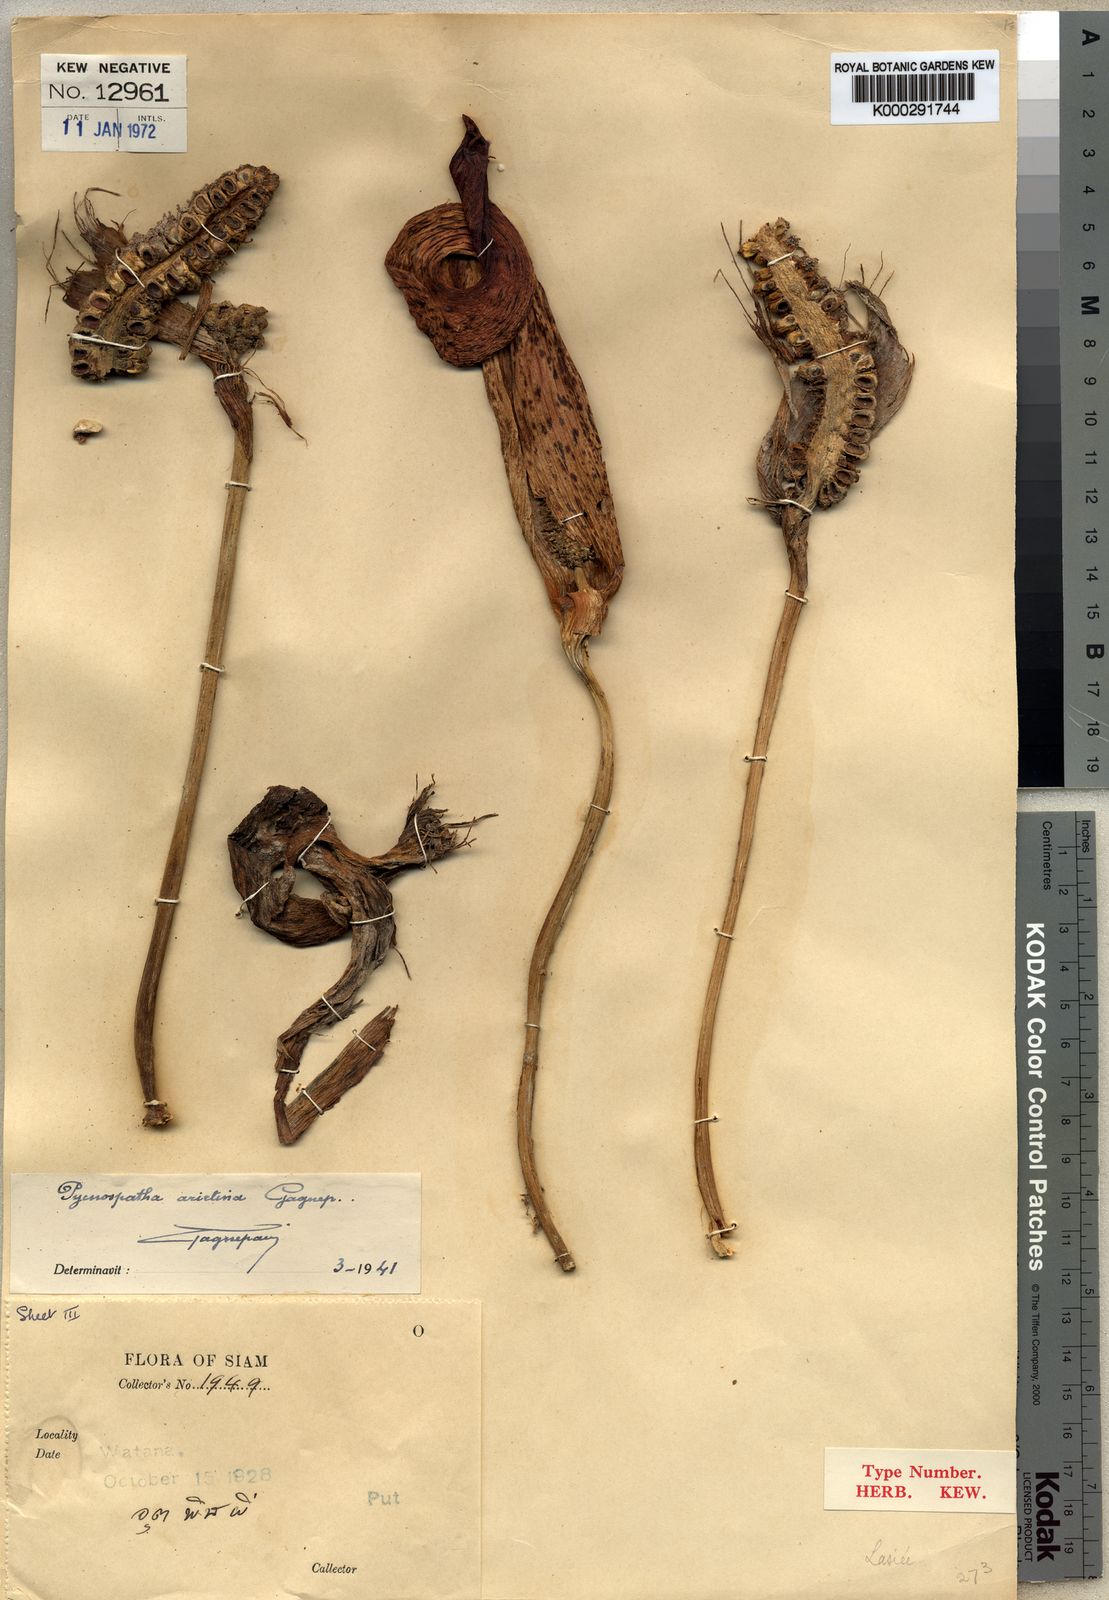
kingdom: Plantae
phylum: Tracheophyta
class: Liliopsida
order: Alismatales
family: Araceae
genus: Pycnospatha
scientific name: Pycnospatha arietina
